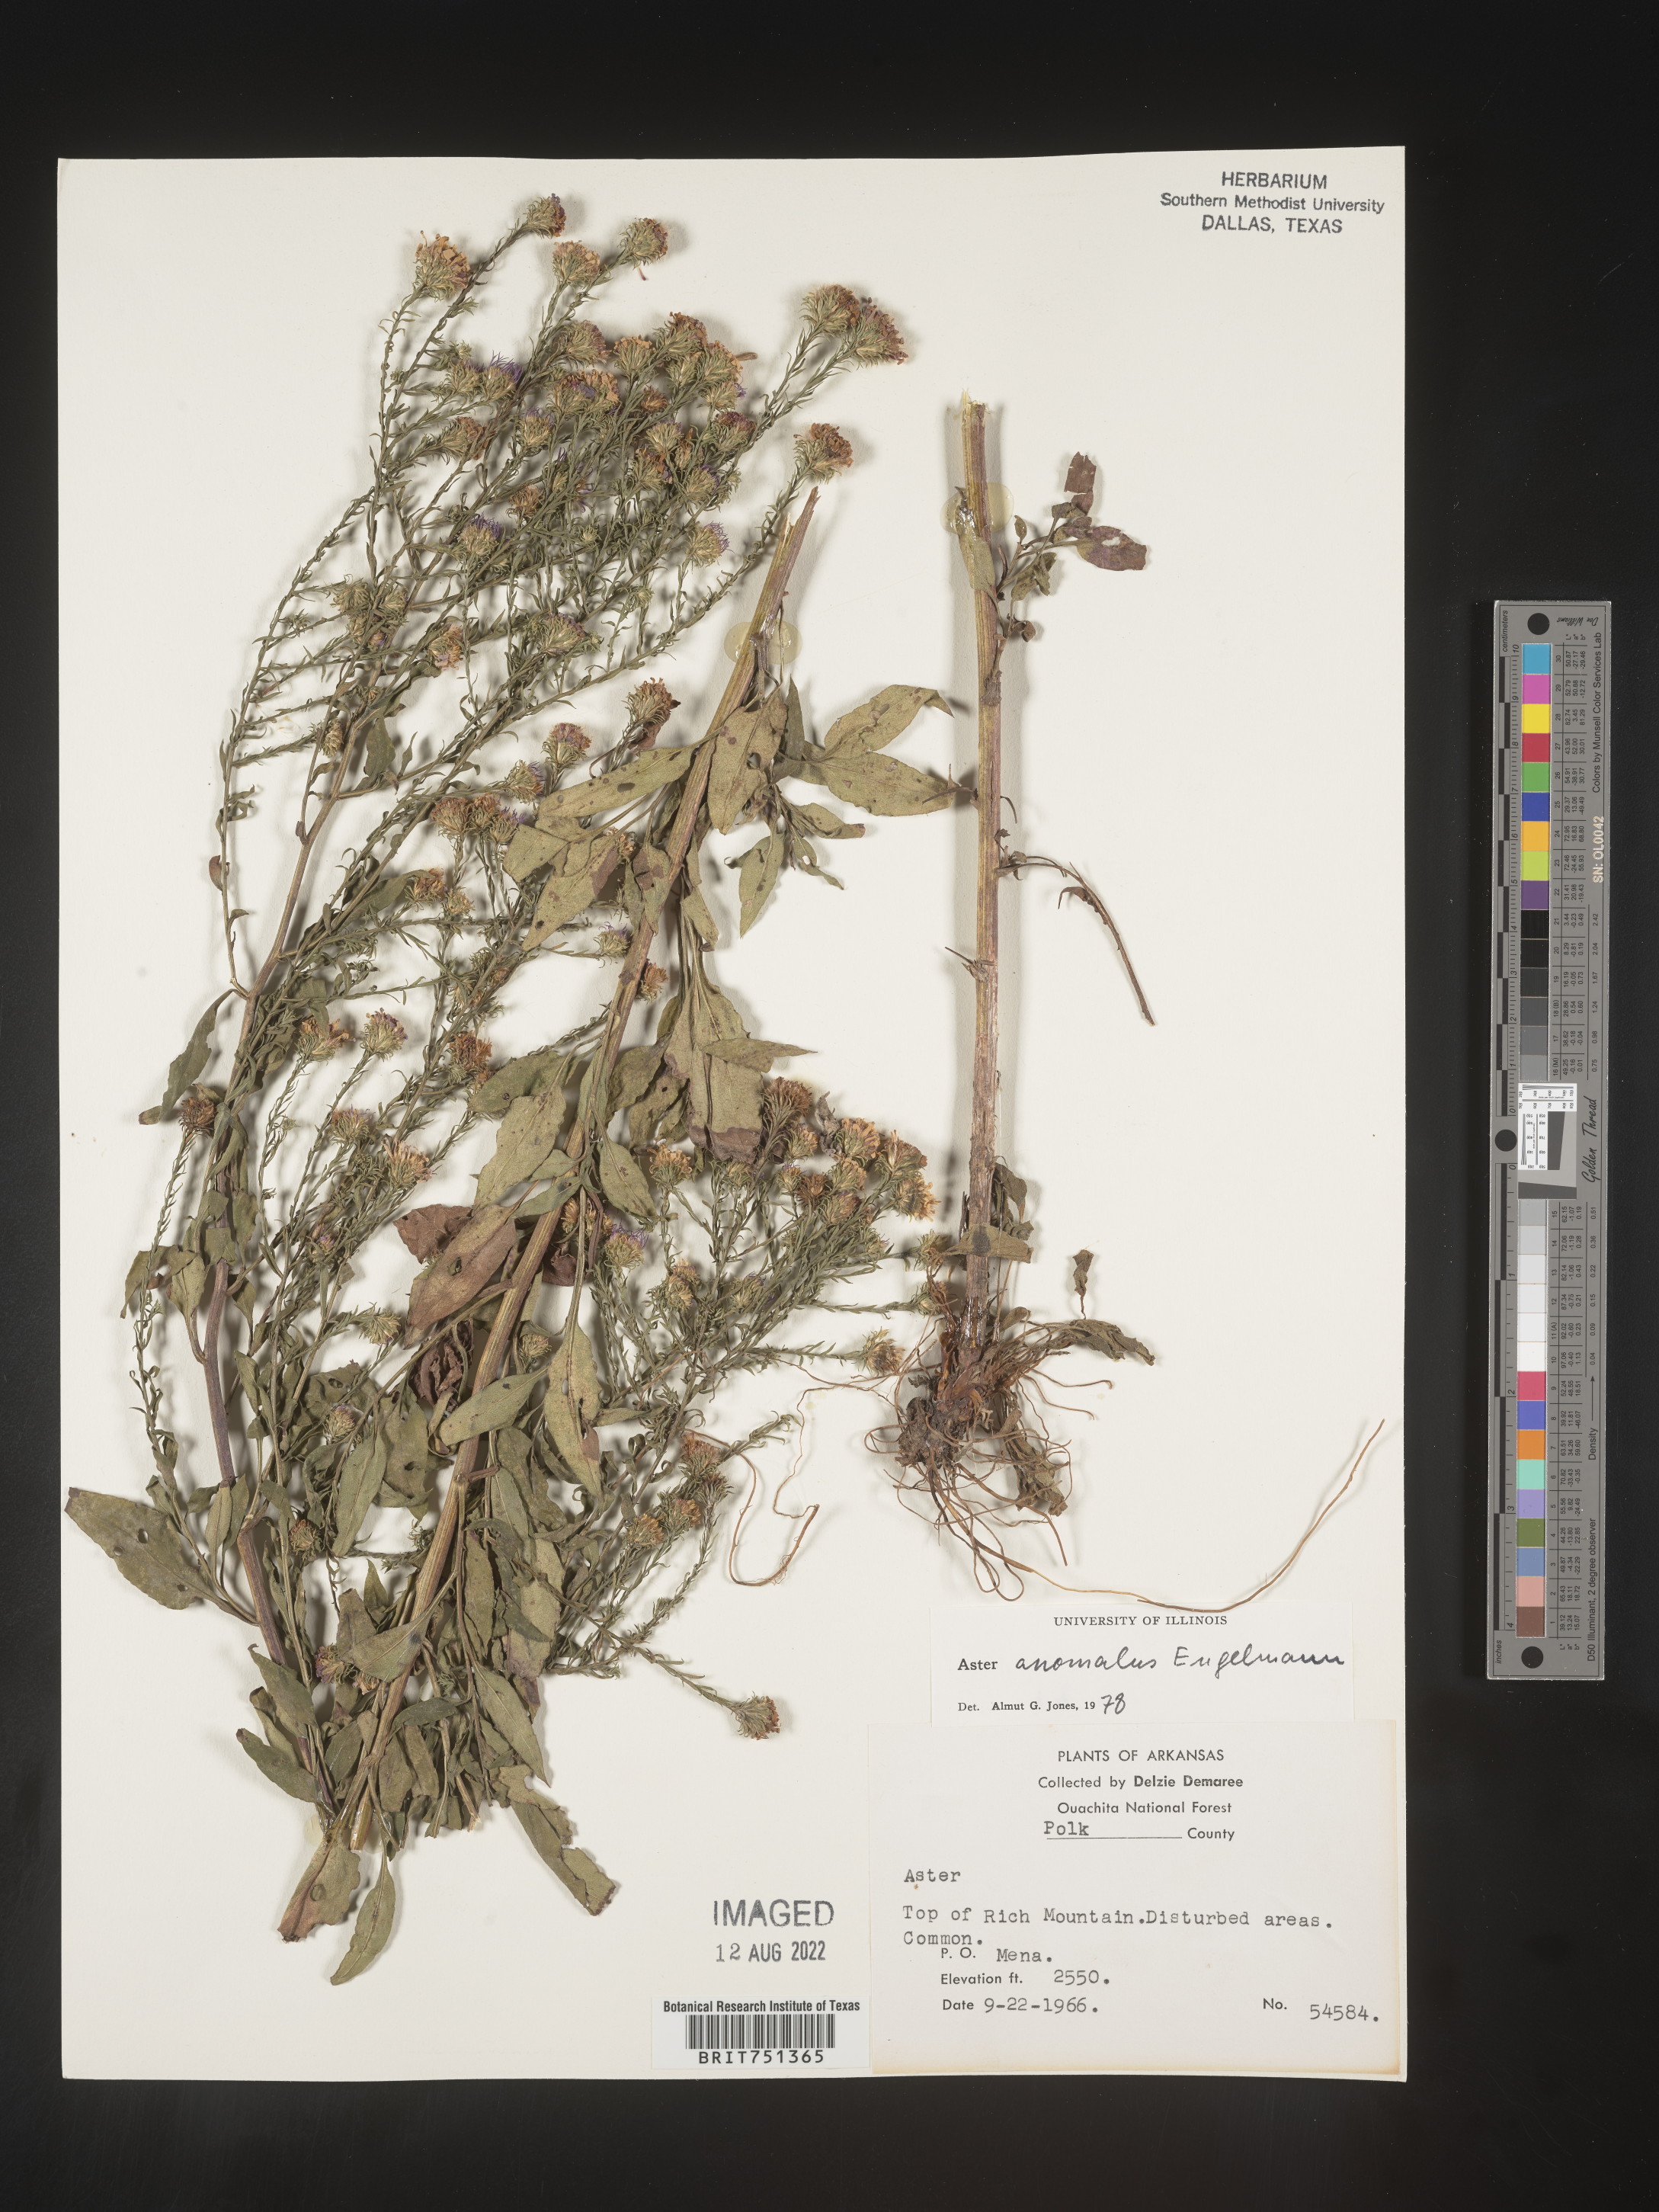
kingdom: Plantae
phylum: Tracheophyta
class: Magnoliopsida
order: Asterales
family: Asteraceae
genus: Symphyotrichum
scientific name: Symphyotrichum anomalum
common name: Many-ray aster
